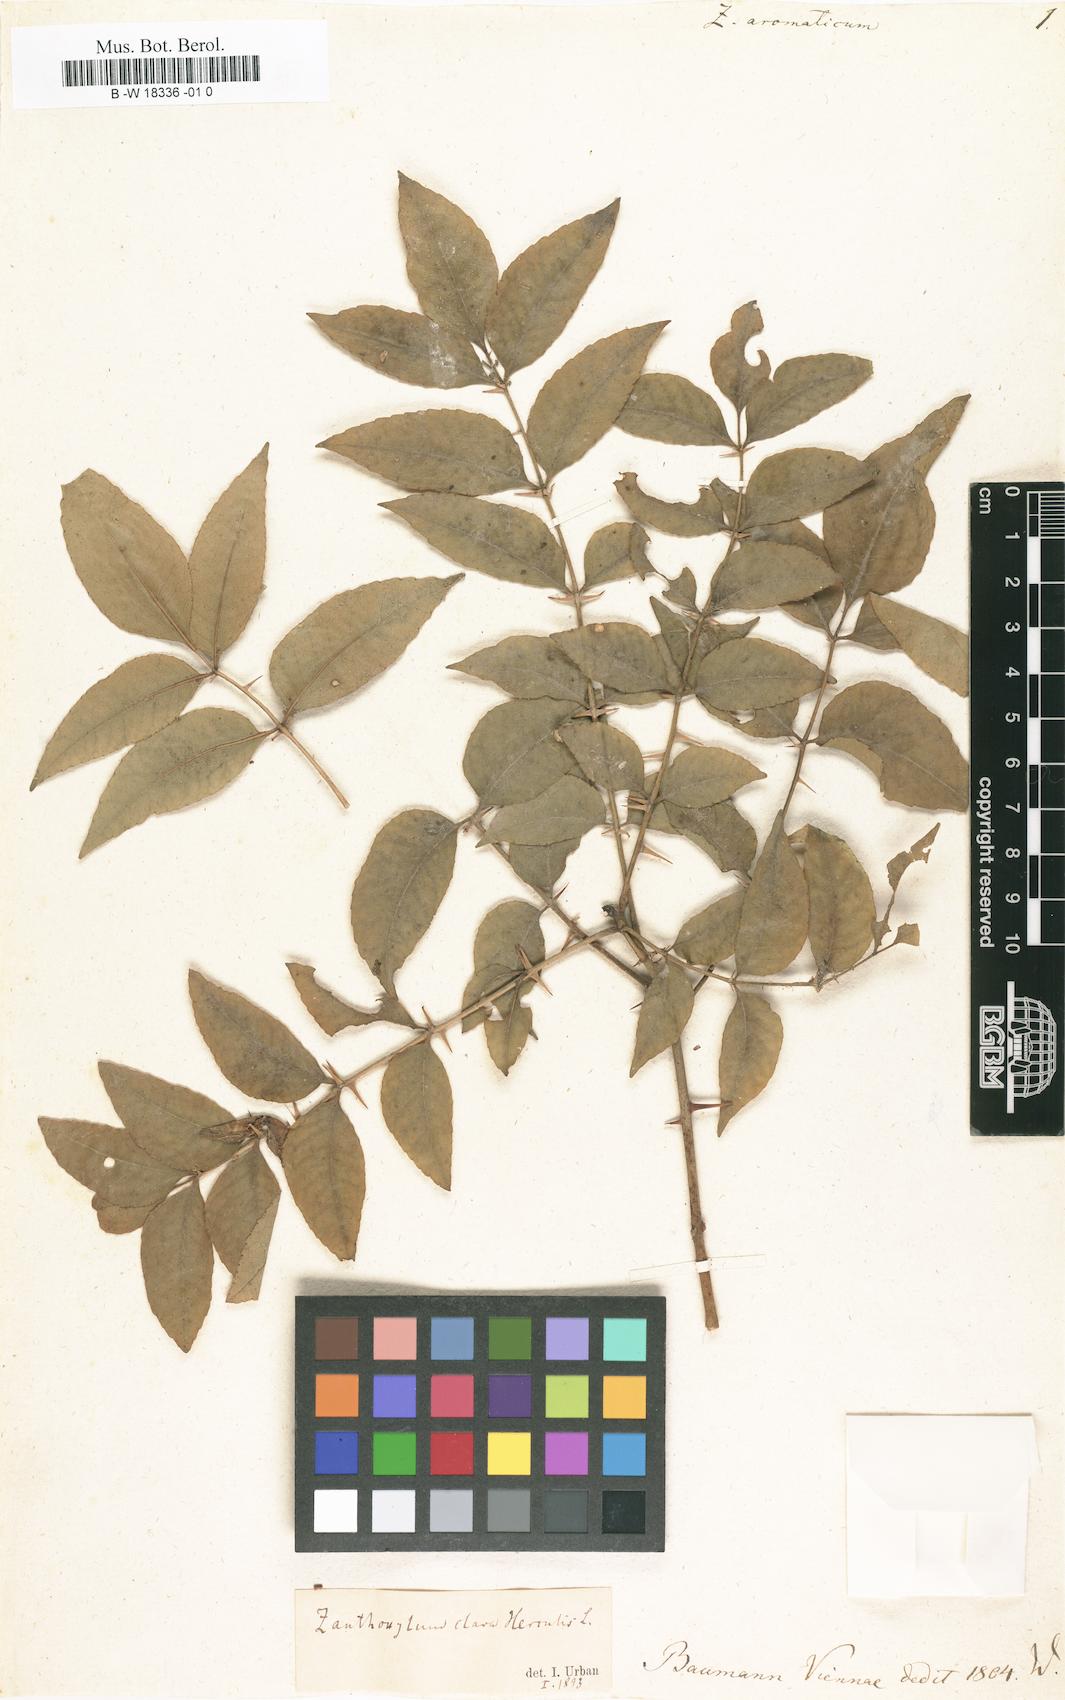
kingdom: Plantae
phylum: Tracheophyta
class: Magnoliopsida
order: Sapindales
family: Rutaceae
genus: Zanthoxylum
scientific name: Zanthoxylum clava-herculis
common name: Hercules'-club
